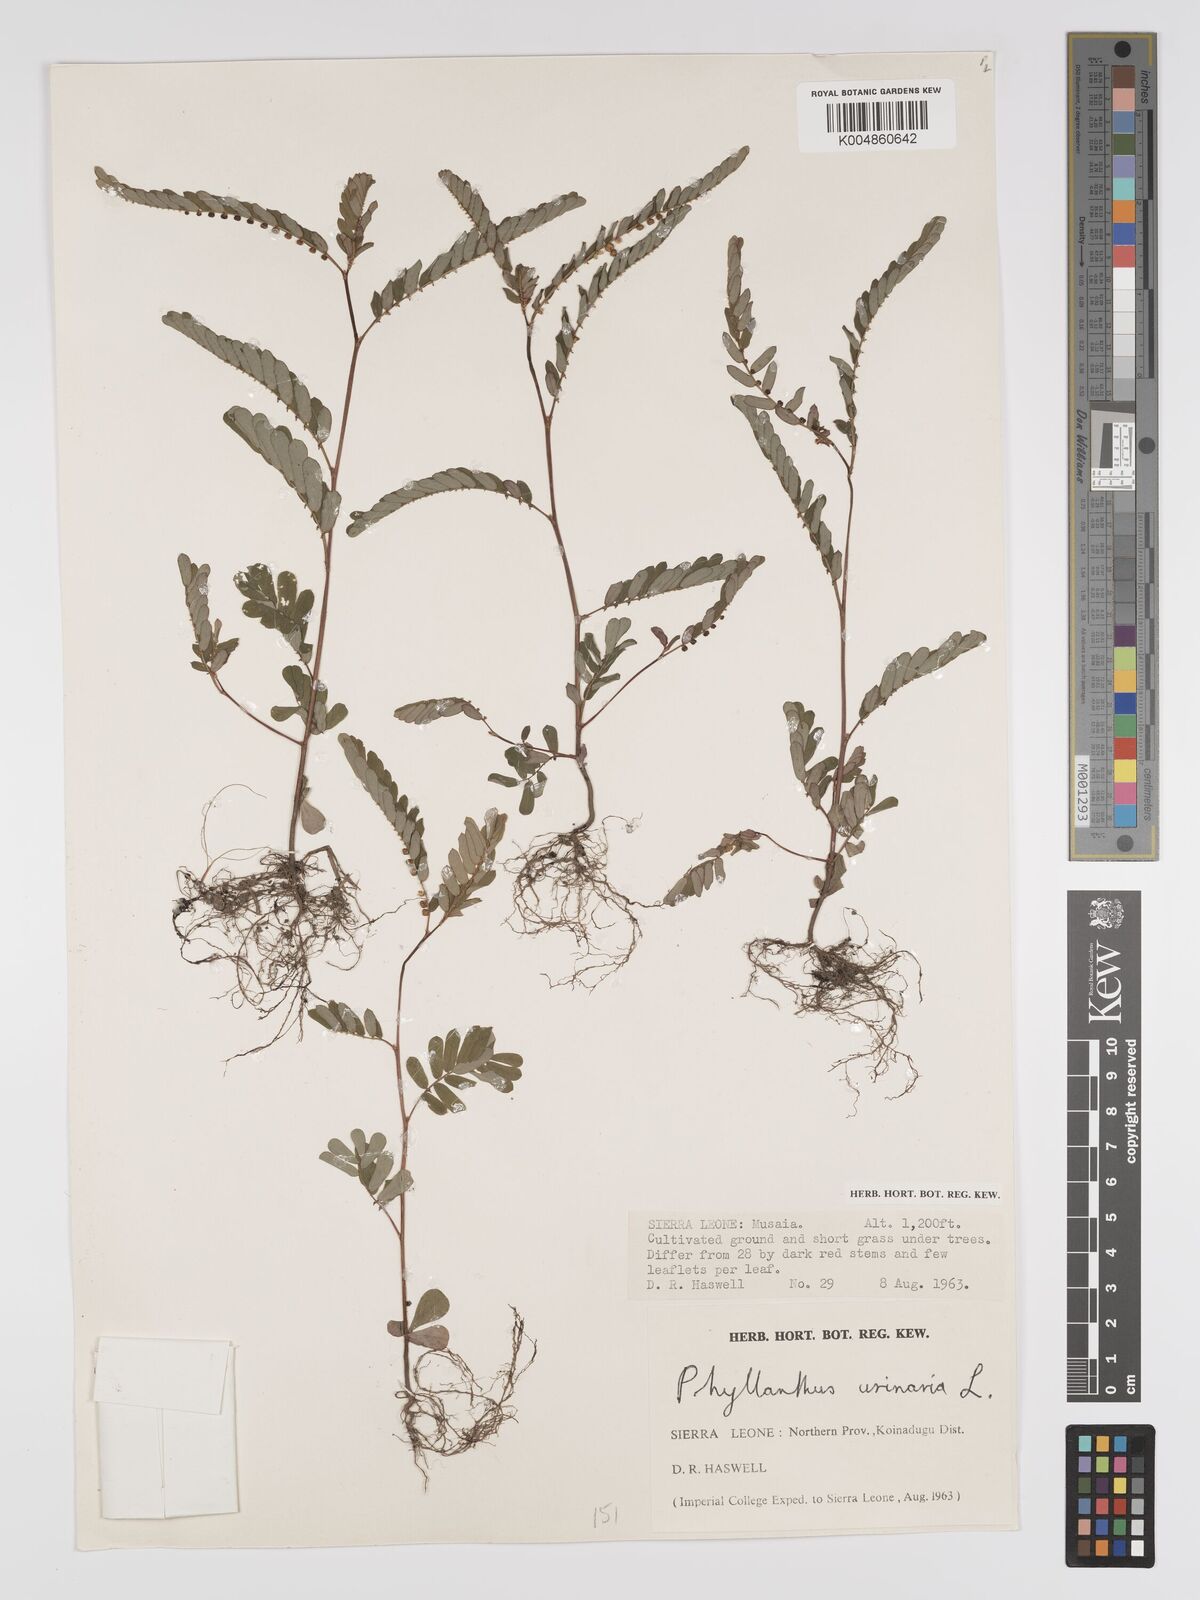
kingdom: Plantae
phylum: Tracheophyta
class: Magnoliopsida
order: Malpighiales
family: Phyllanthaceae
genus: Phyllanthus
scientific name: Phyllanthus urinaria
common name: Chamber bitter
